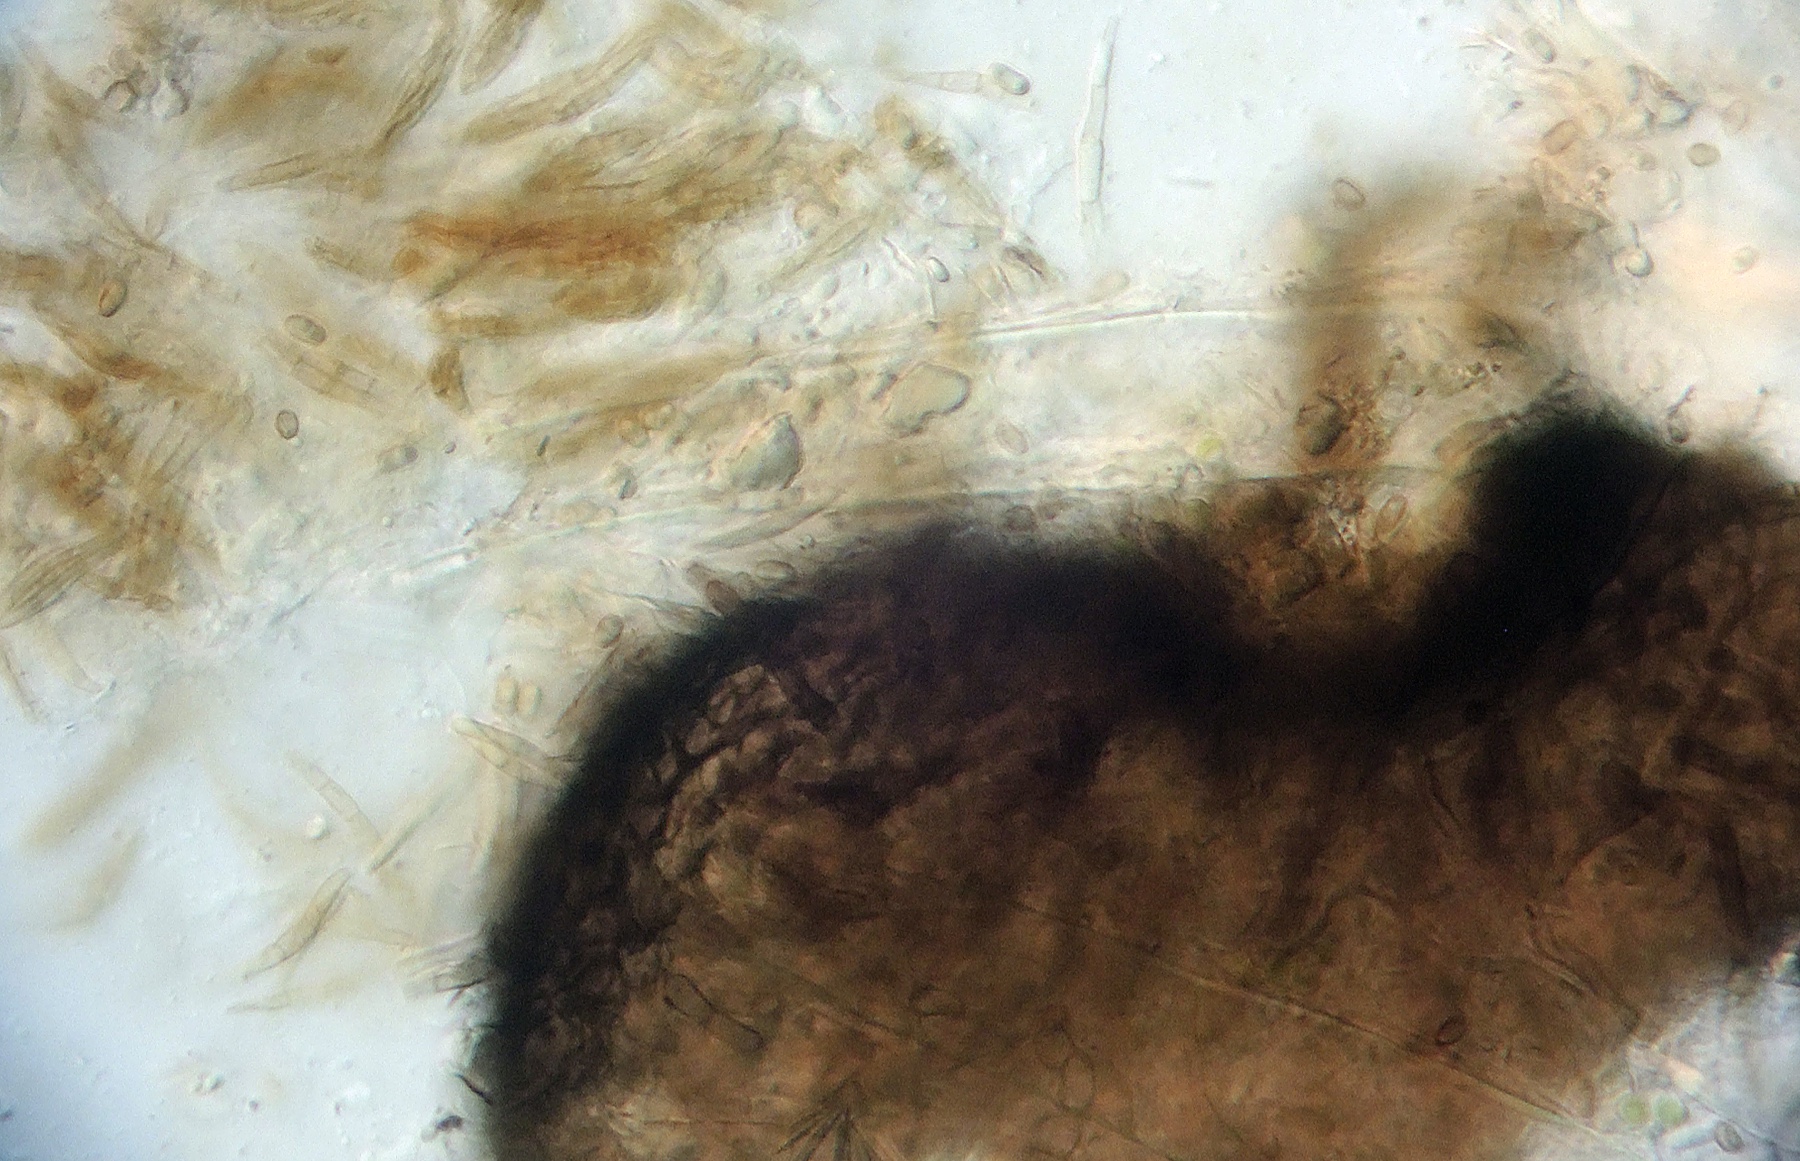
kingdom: Fungi
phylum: Ascomycota
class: Dothideomycetes
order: Pleosporales
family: Thyridariaceae
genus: Massariosphaeria
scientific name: Massariosphaeria scirpina
